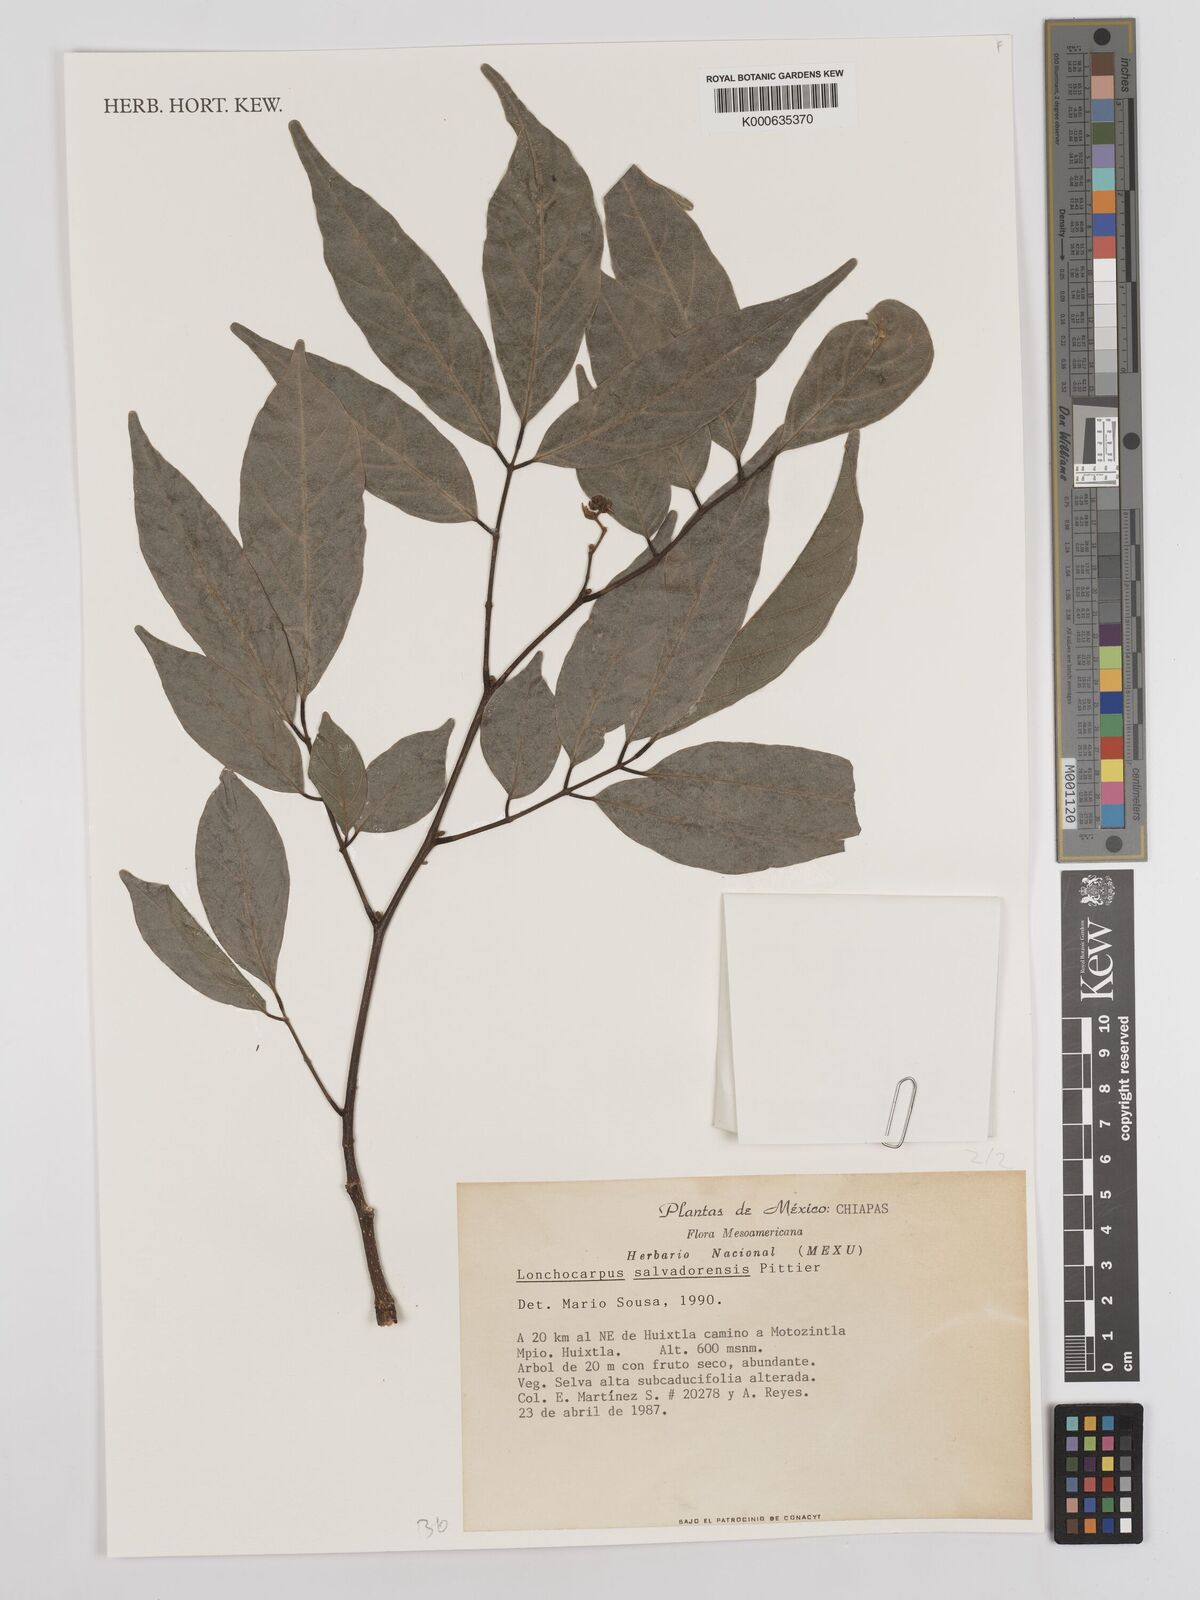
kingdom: Plantae
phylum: Tracheophyta
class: Magnoliopsida
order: Fabales
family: Fabaceae
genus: Lonchocarpus
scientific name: Lonchocarpus salvadorensis
